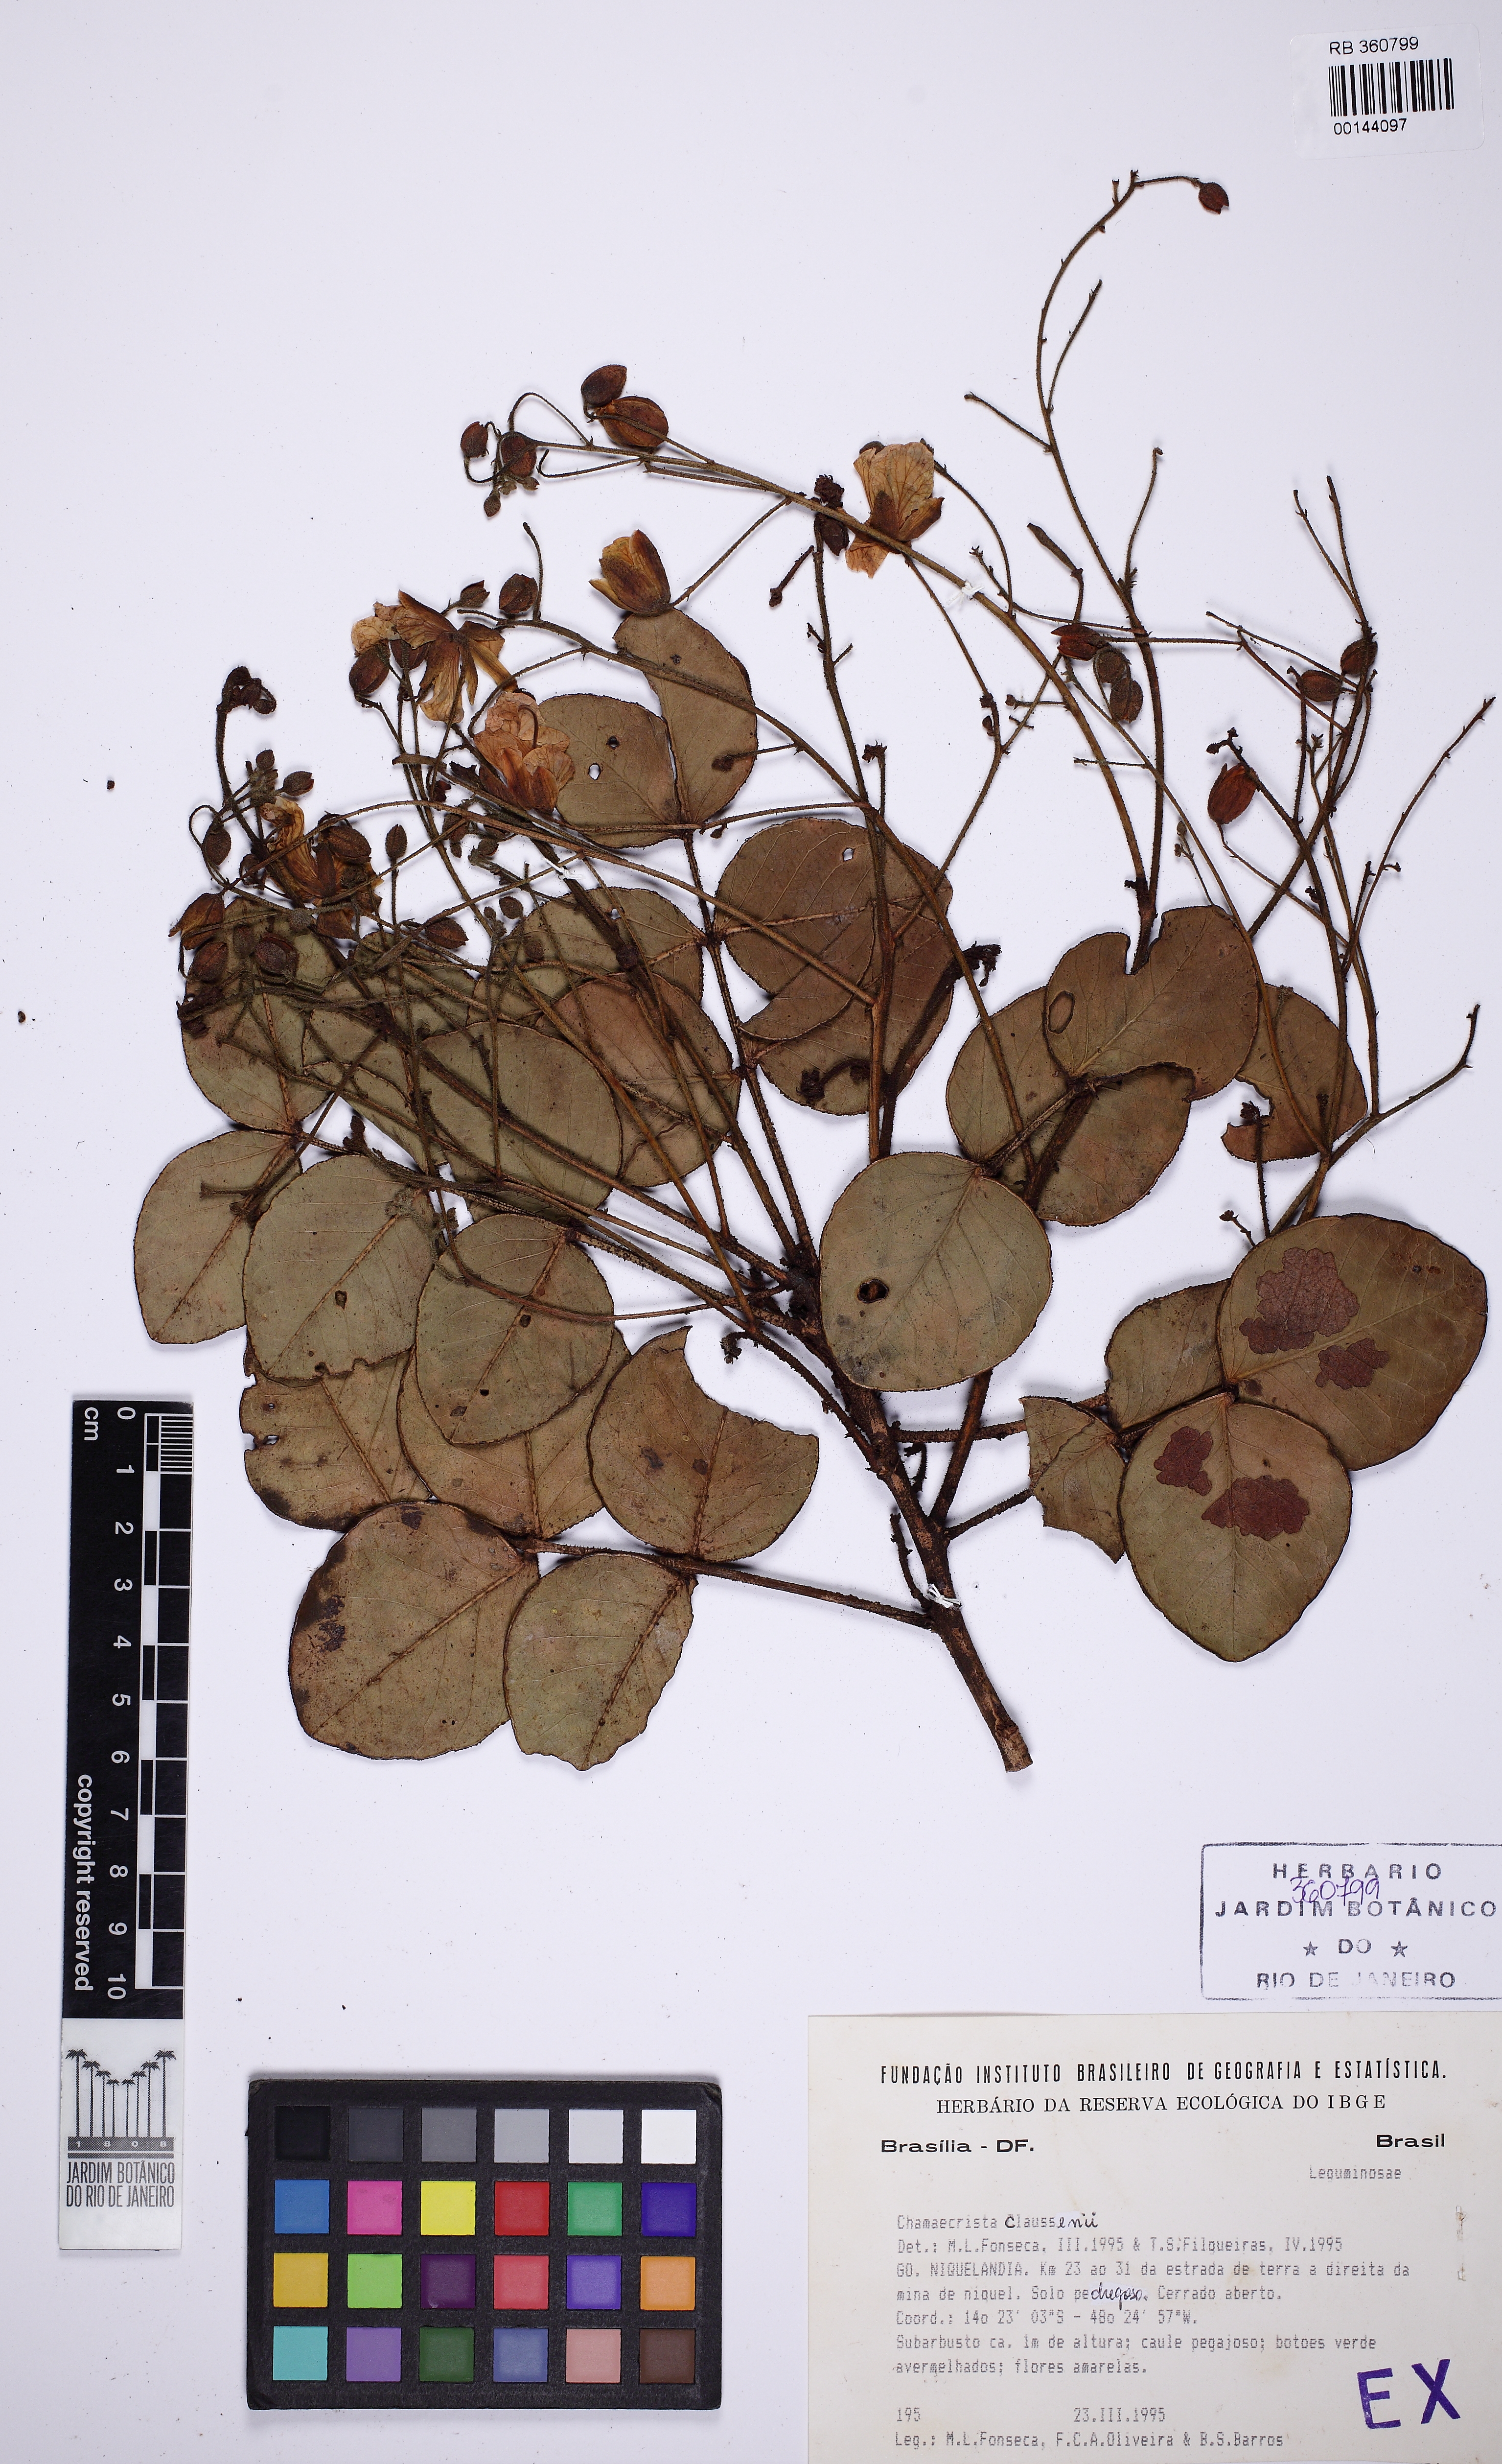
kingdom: Plantae
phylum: Tracheophyta
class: Magnoliopsida
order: Fabales
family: Fabaceae
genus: Chamaecrista
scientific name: Chamaecrista claussenii
